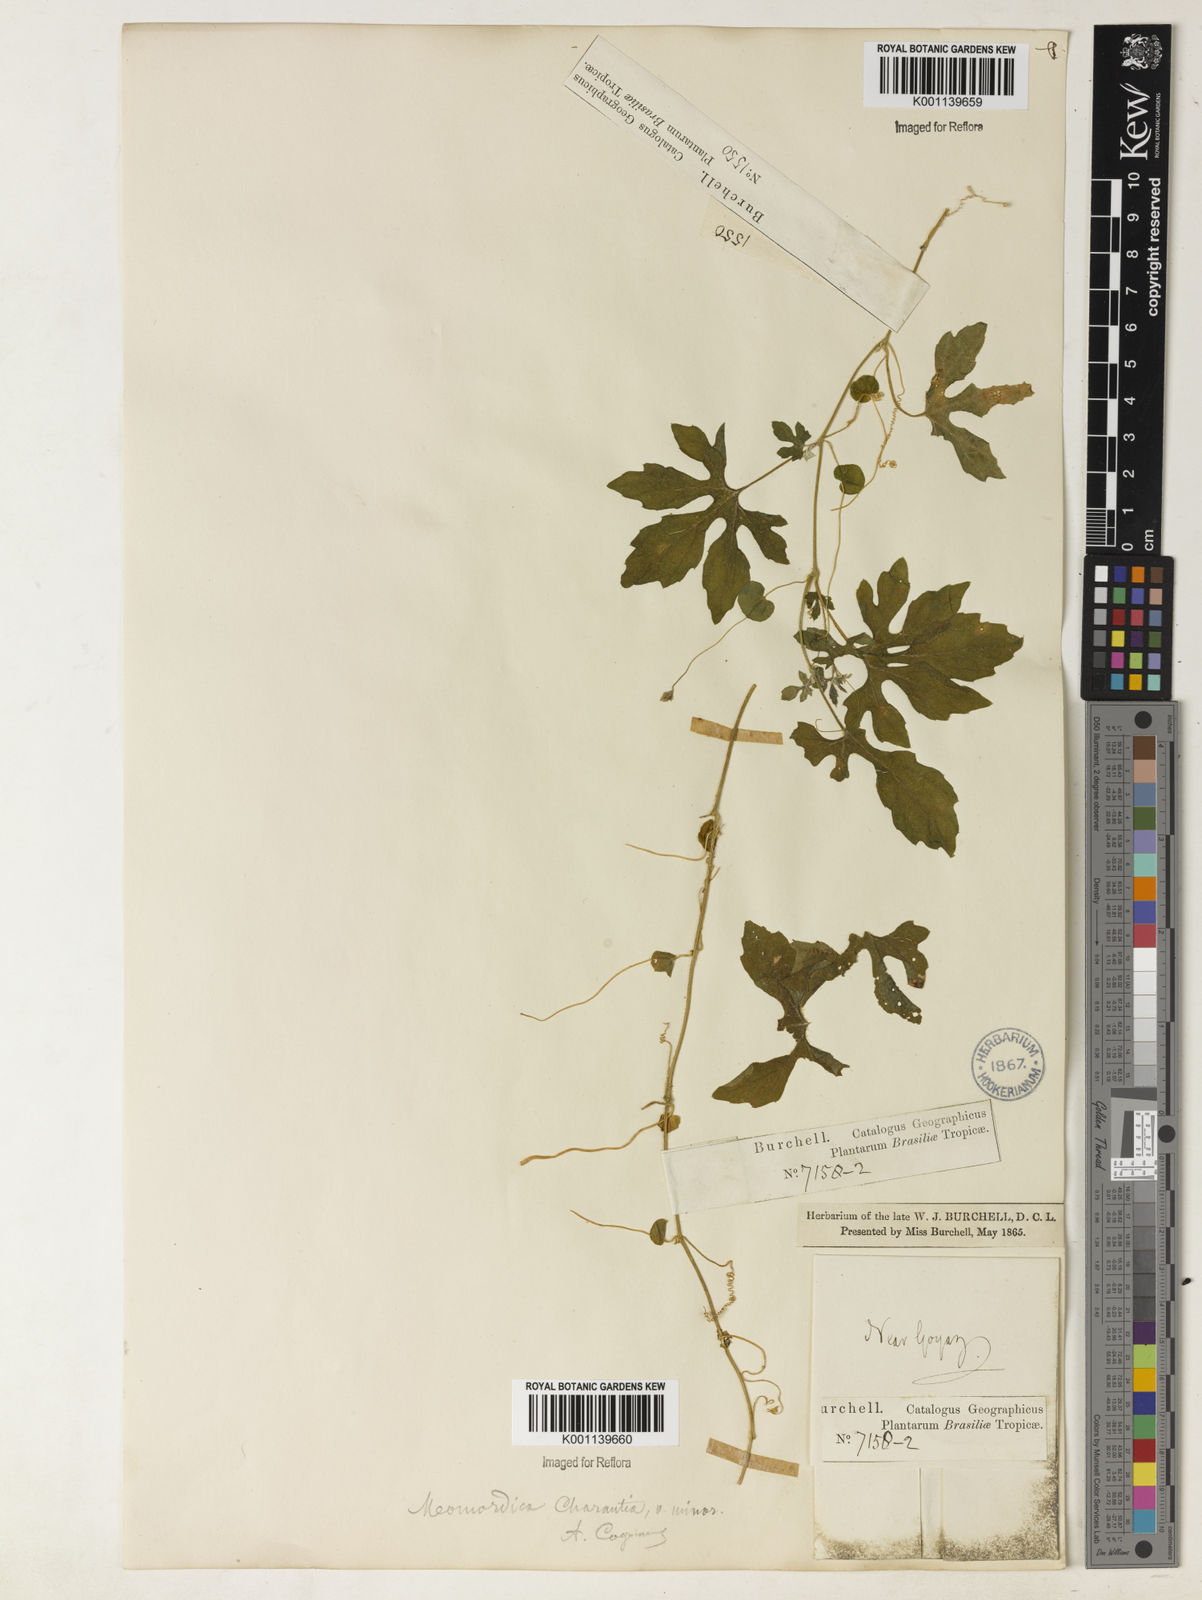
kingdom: Plantae
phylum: Tracheophyta
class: Magnoliopsida
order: Cucurbitales
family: Cucurbitaceae
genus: Momordica
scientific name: Momordica charantia
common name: Balsampear
